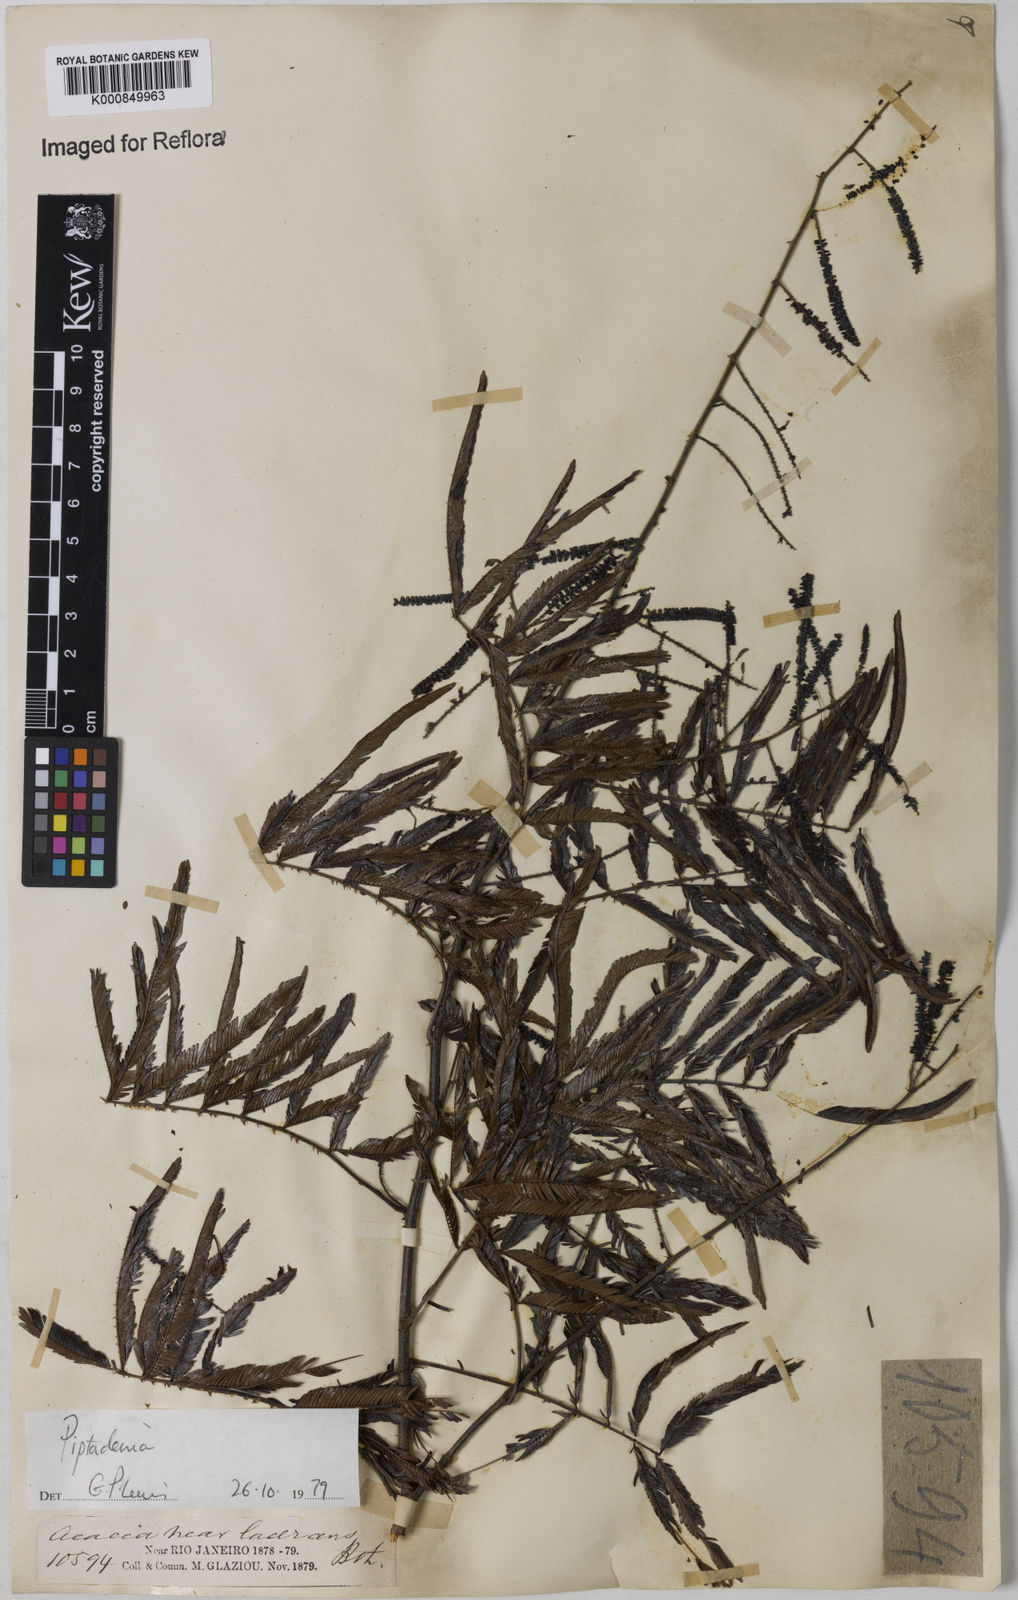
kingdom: Plantae
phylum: Tracheophyta
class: Magnoliopsida
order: Fabales
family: Fabaceae
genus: Piptadenia
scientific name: Piptadenia
